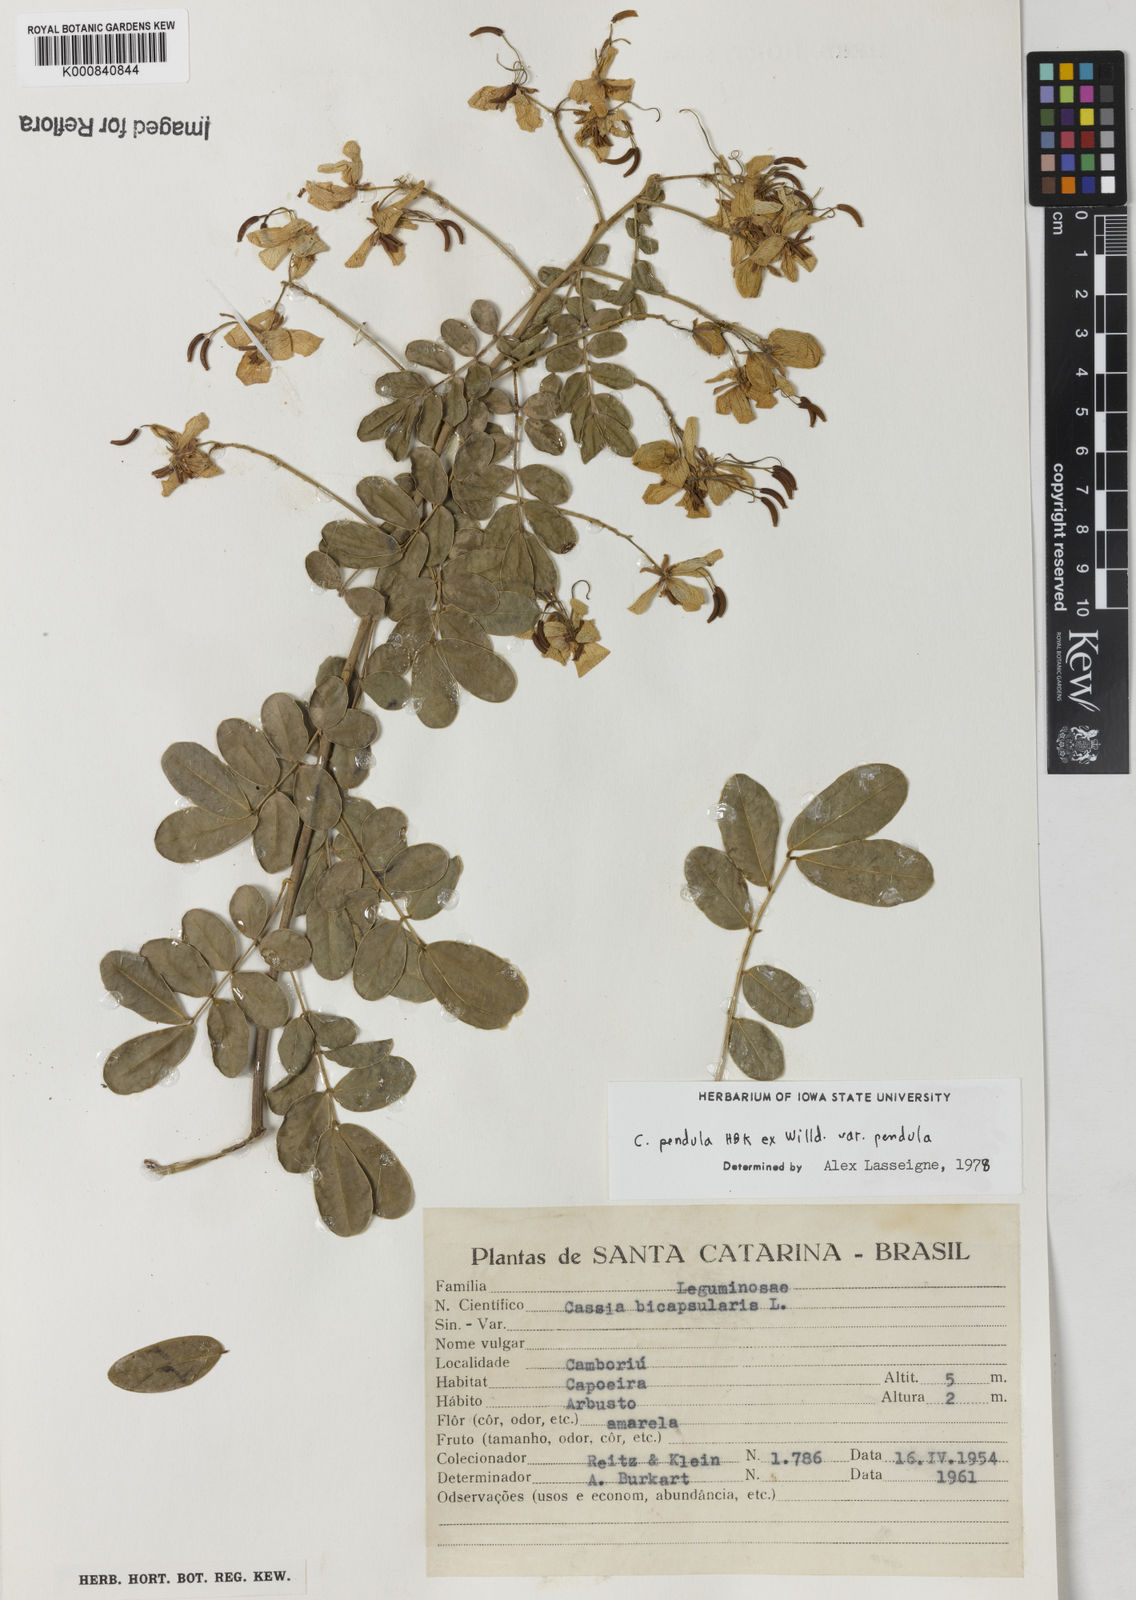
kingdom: Plantae
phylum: Tracheophyta
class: Magnoliopsida
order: Fabales
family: Fabaceae
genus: Senna
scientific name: Senna pendula
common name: Easter cassia
